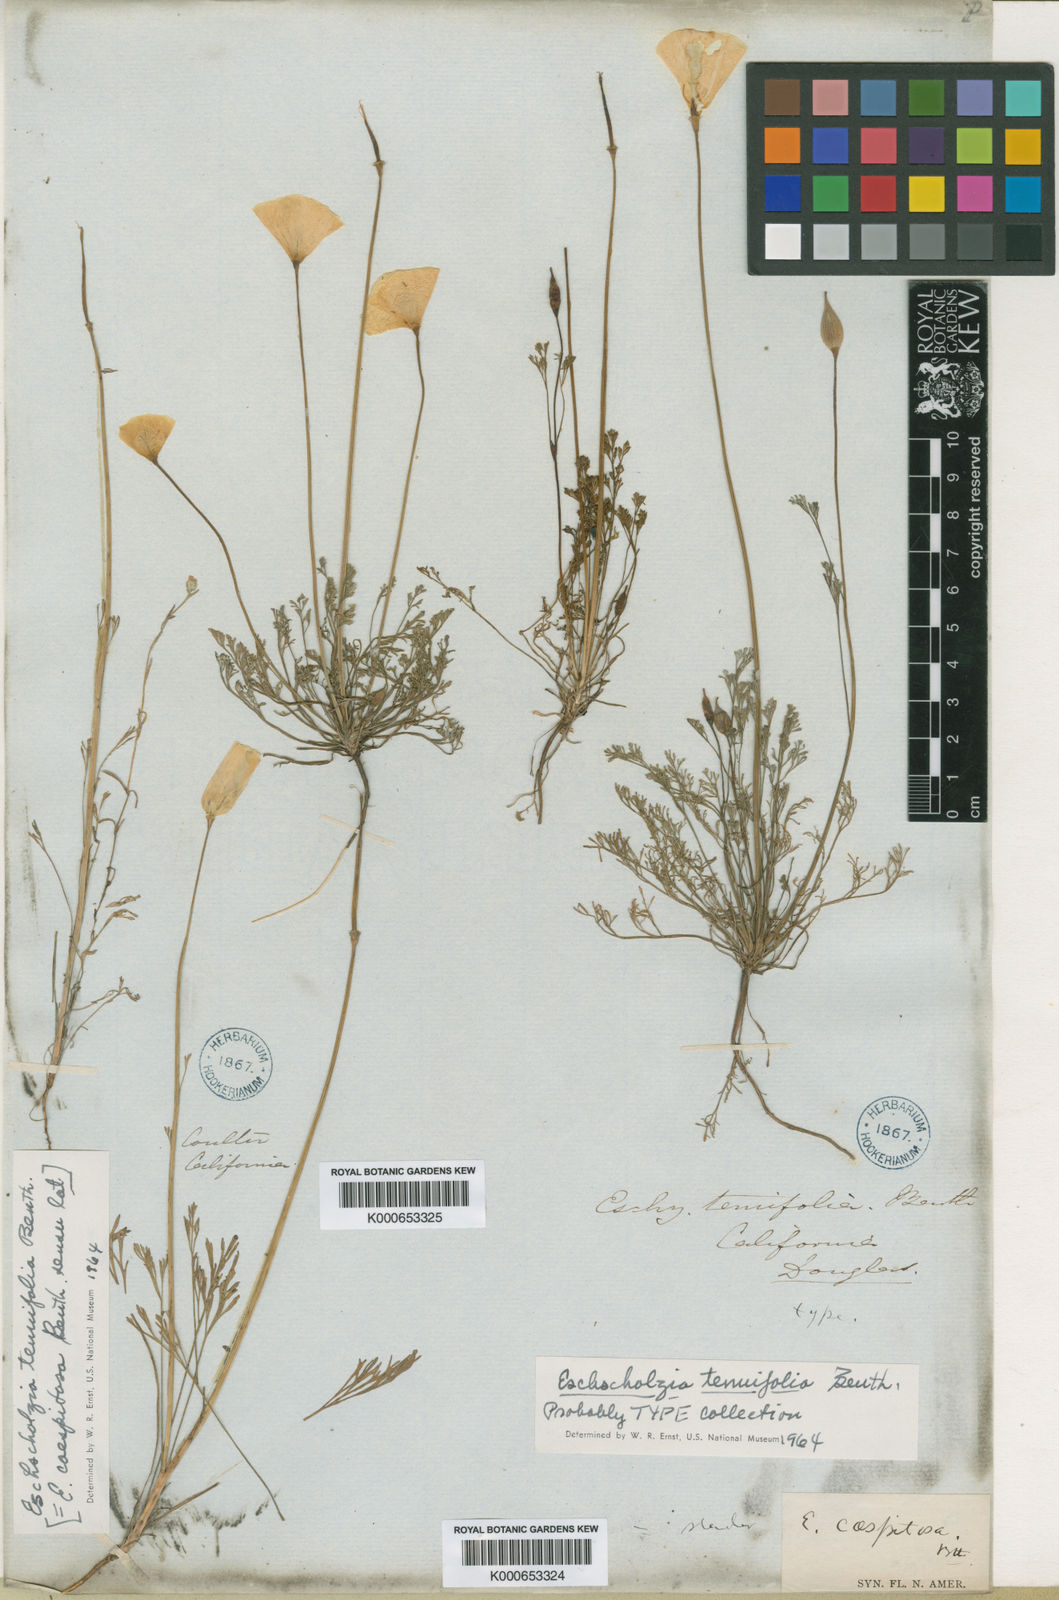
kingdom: Plantae
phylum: Tracheophyta
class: Magnoliopsida
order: Ranunculales
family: Papaveraceae
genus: Eschscholzia
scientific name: Eschscholzia caespitosa
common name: Tufted california-poppy
